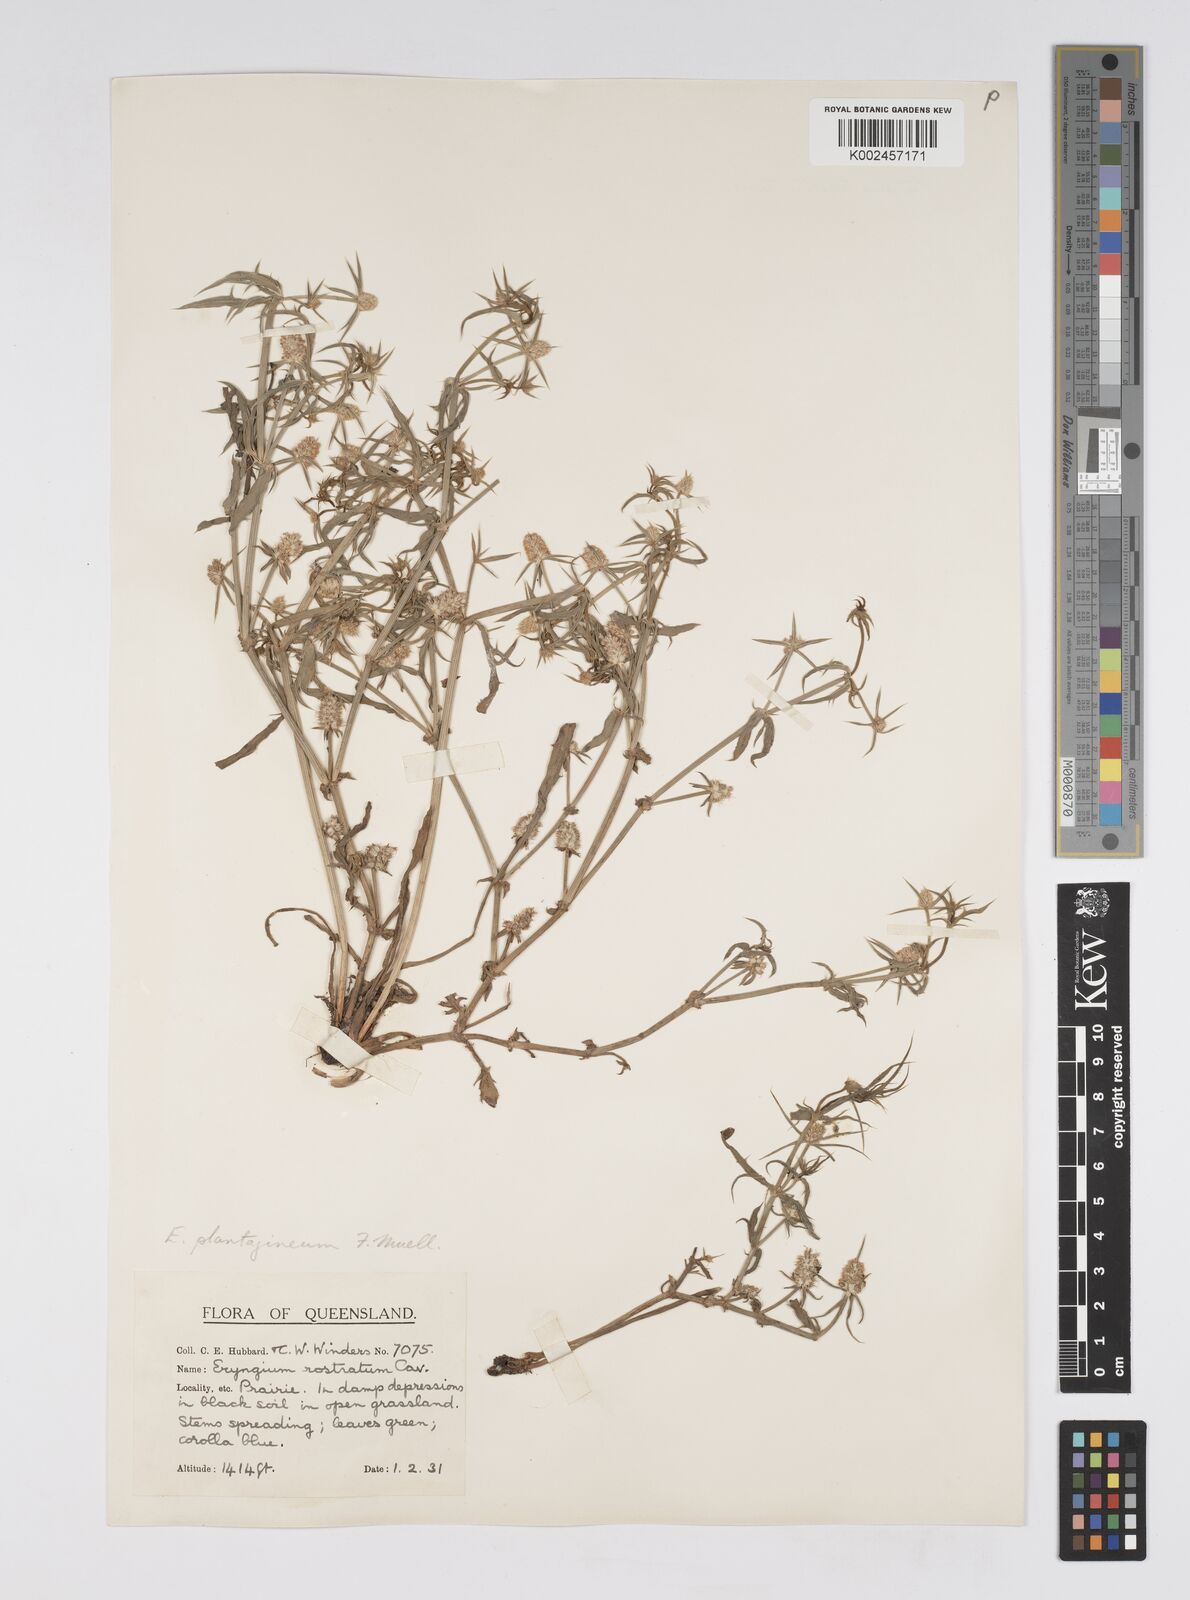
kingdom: Plantae
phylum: Tracheophyta
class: Magnoliopsida
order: Apiales
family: Apiaceae
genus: Eryngium
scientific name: Eryngium plantagineum
